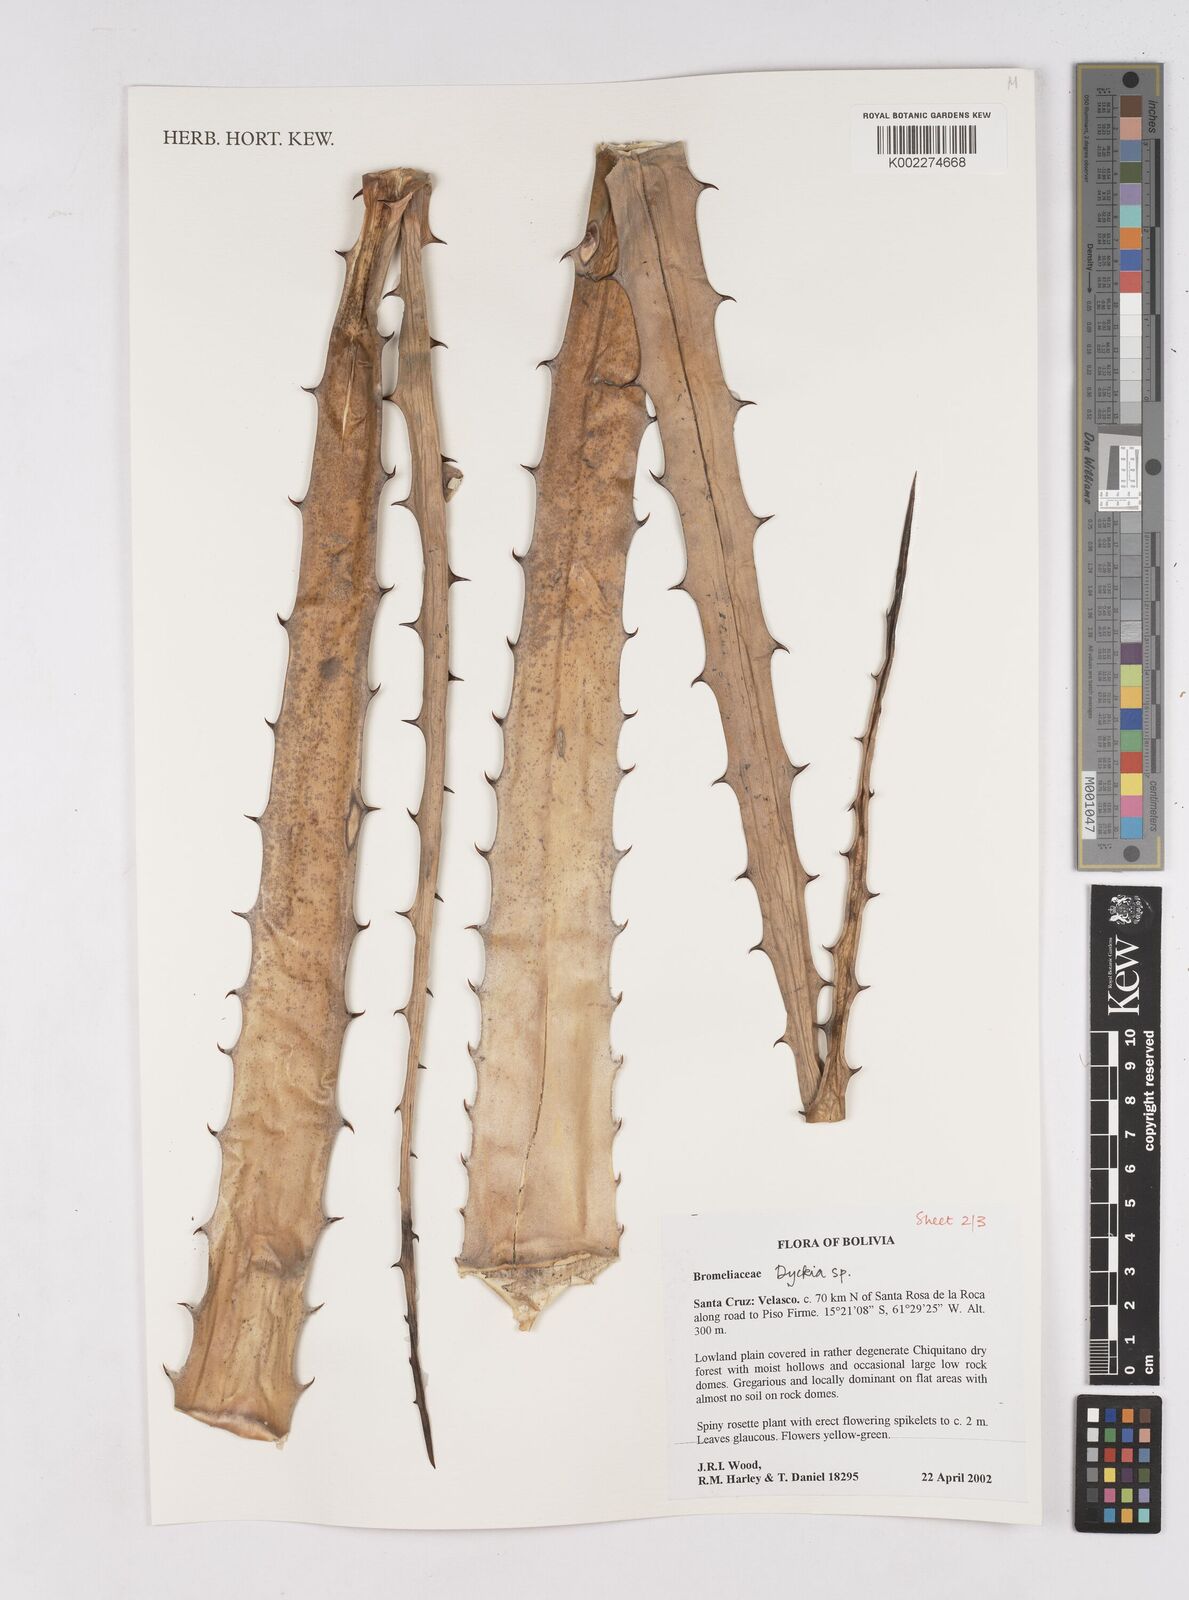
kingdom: Plantae
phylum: Tracheophyta
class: Liliopsida
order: Poales
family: Bromeliaceae
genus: Dyckia
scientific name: Dyckia
